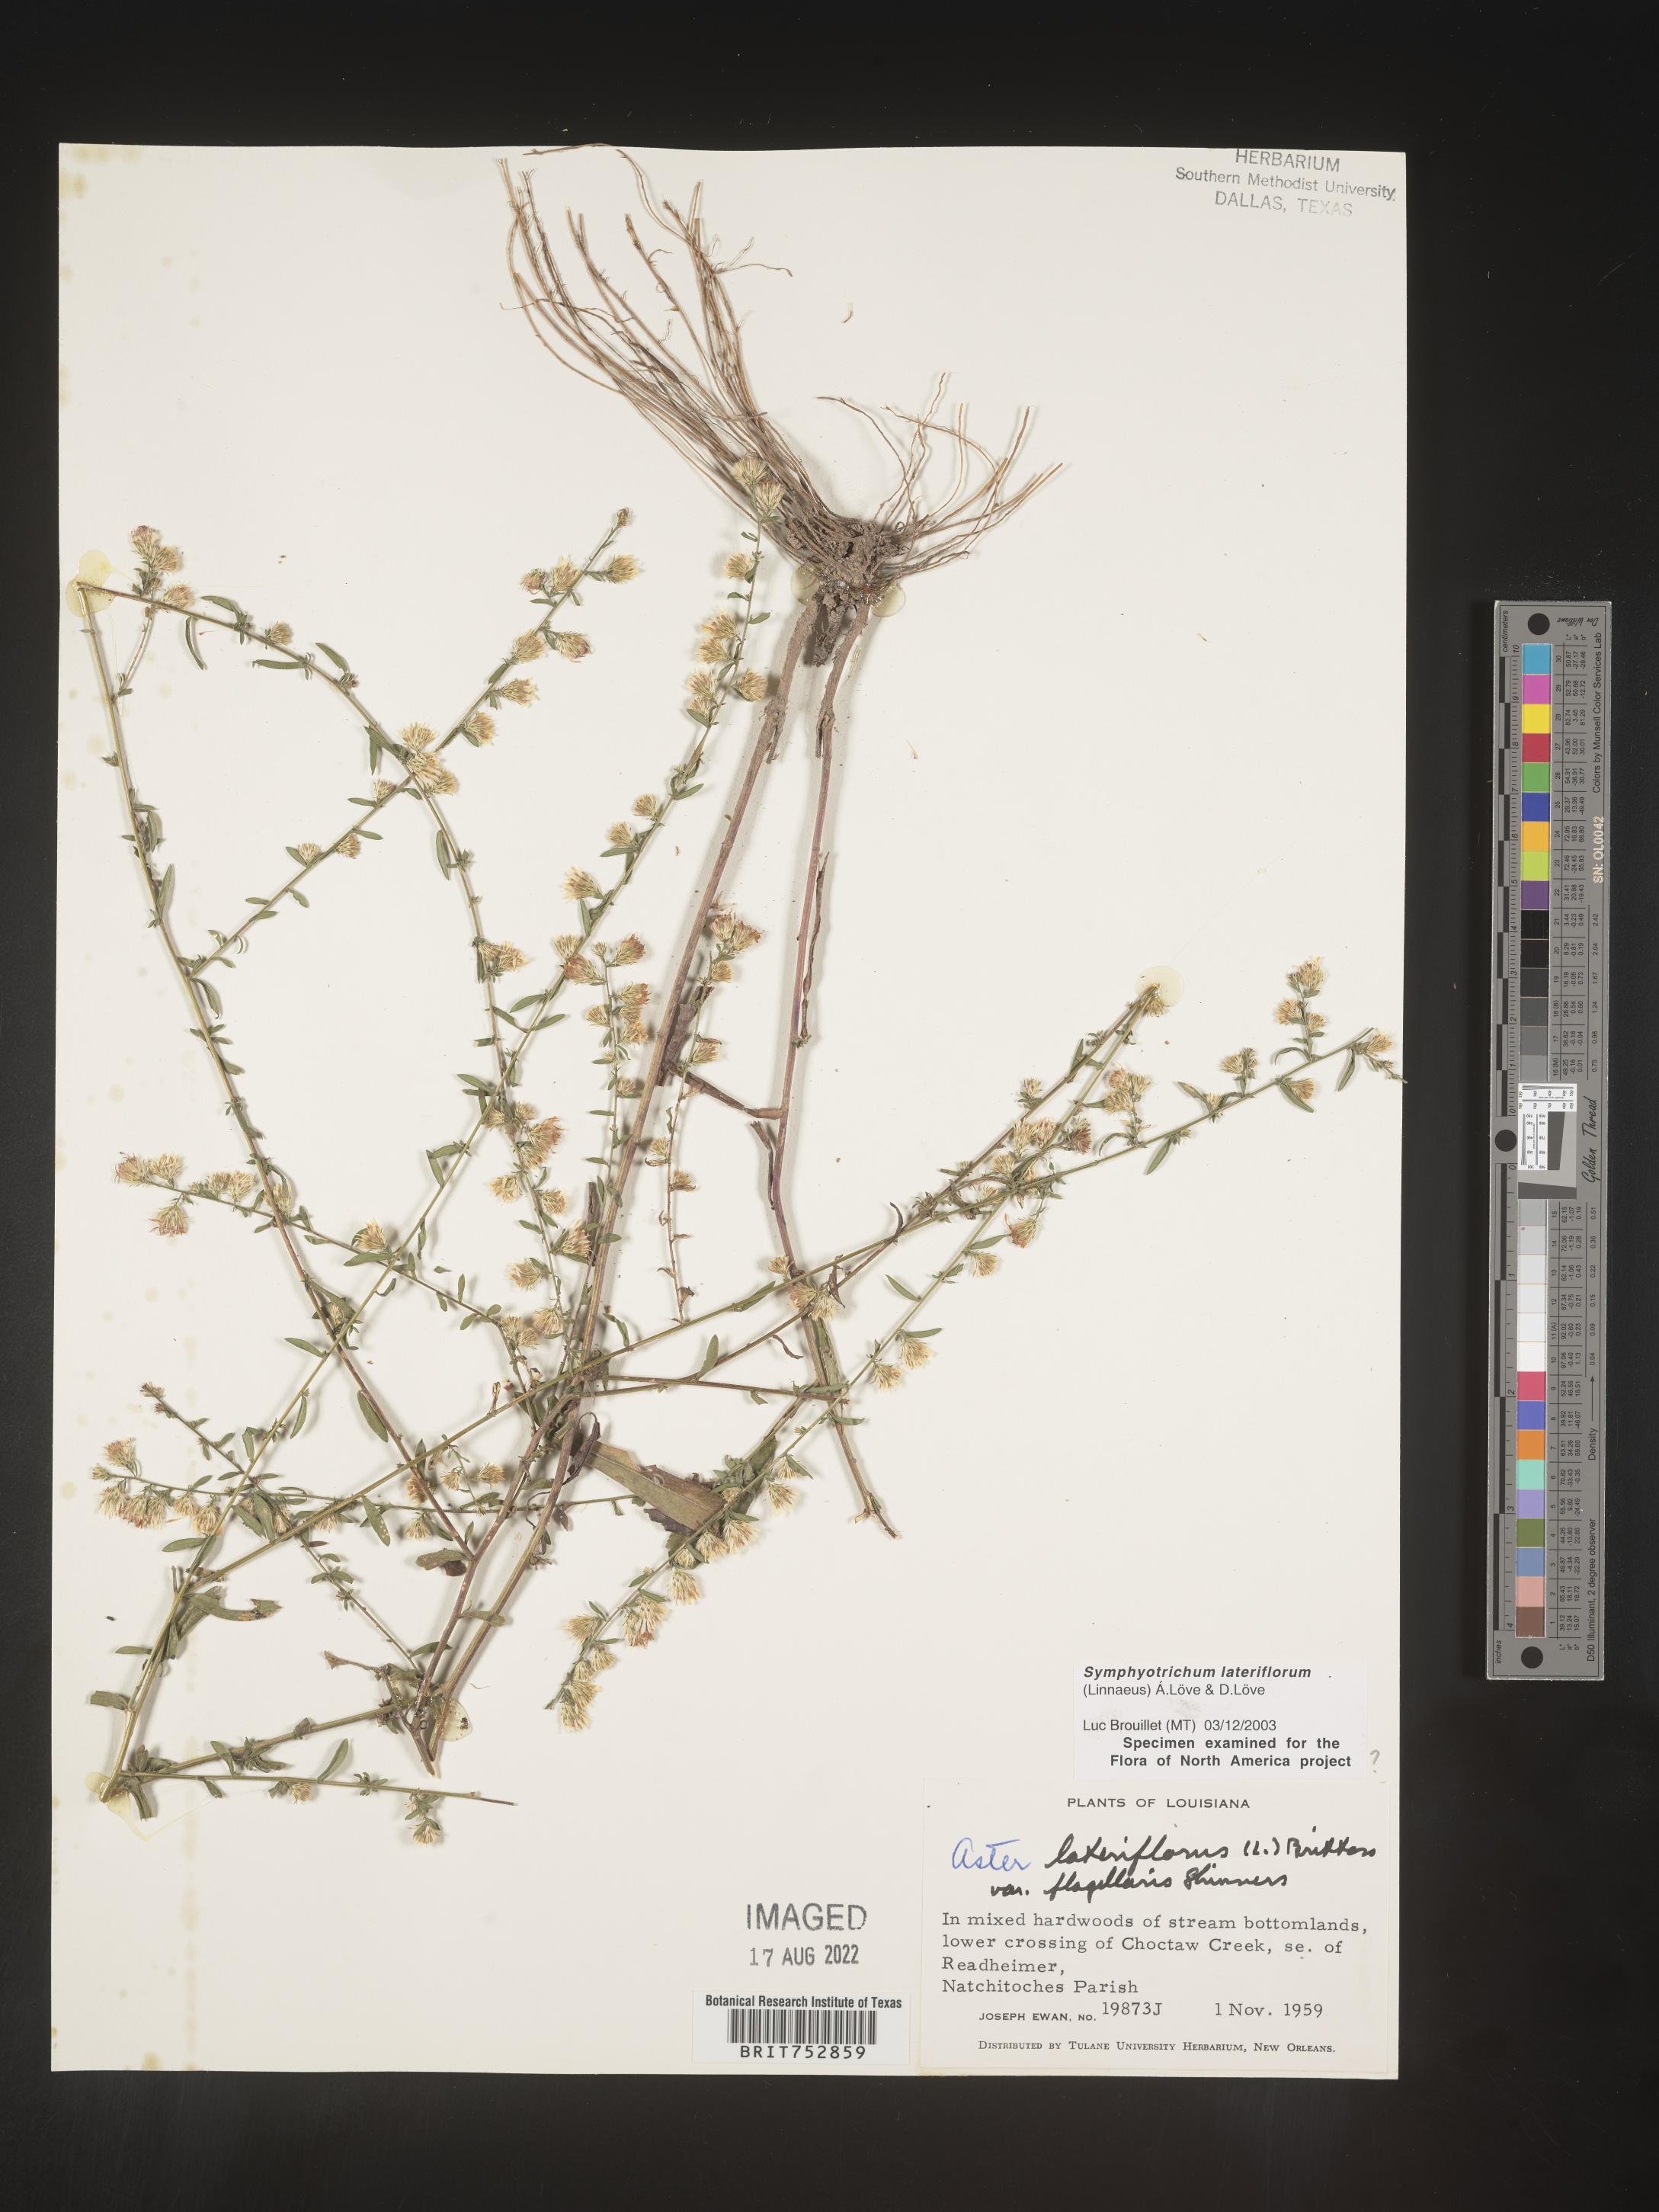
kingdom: Plantae
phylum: Tracheophyta
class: Magnoliopsida
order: Asterales
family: Asteraceae
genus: Symphyotrichum
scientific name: Symphyotrichum lateriflorum
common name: Calico aster
